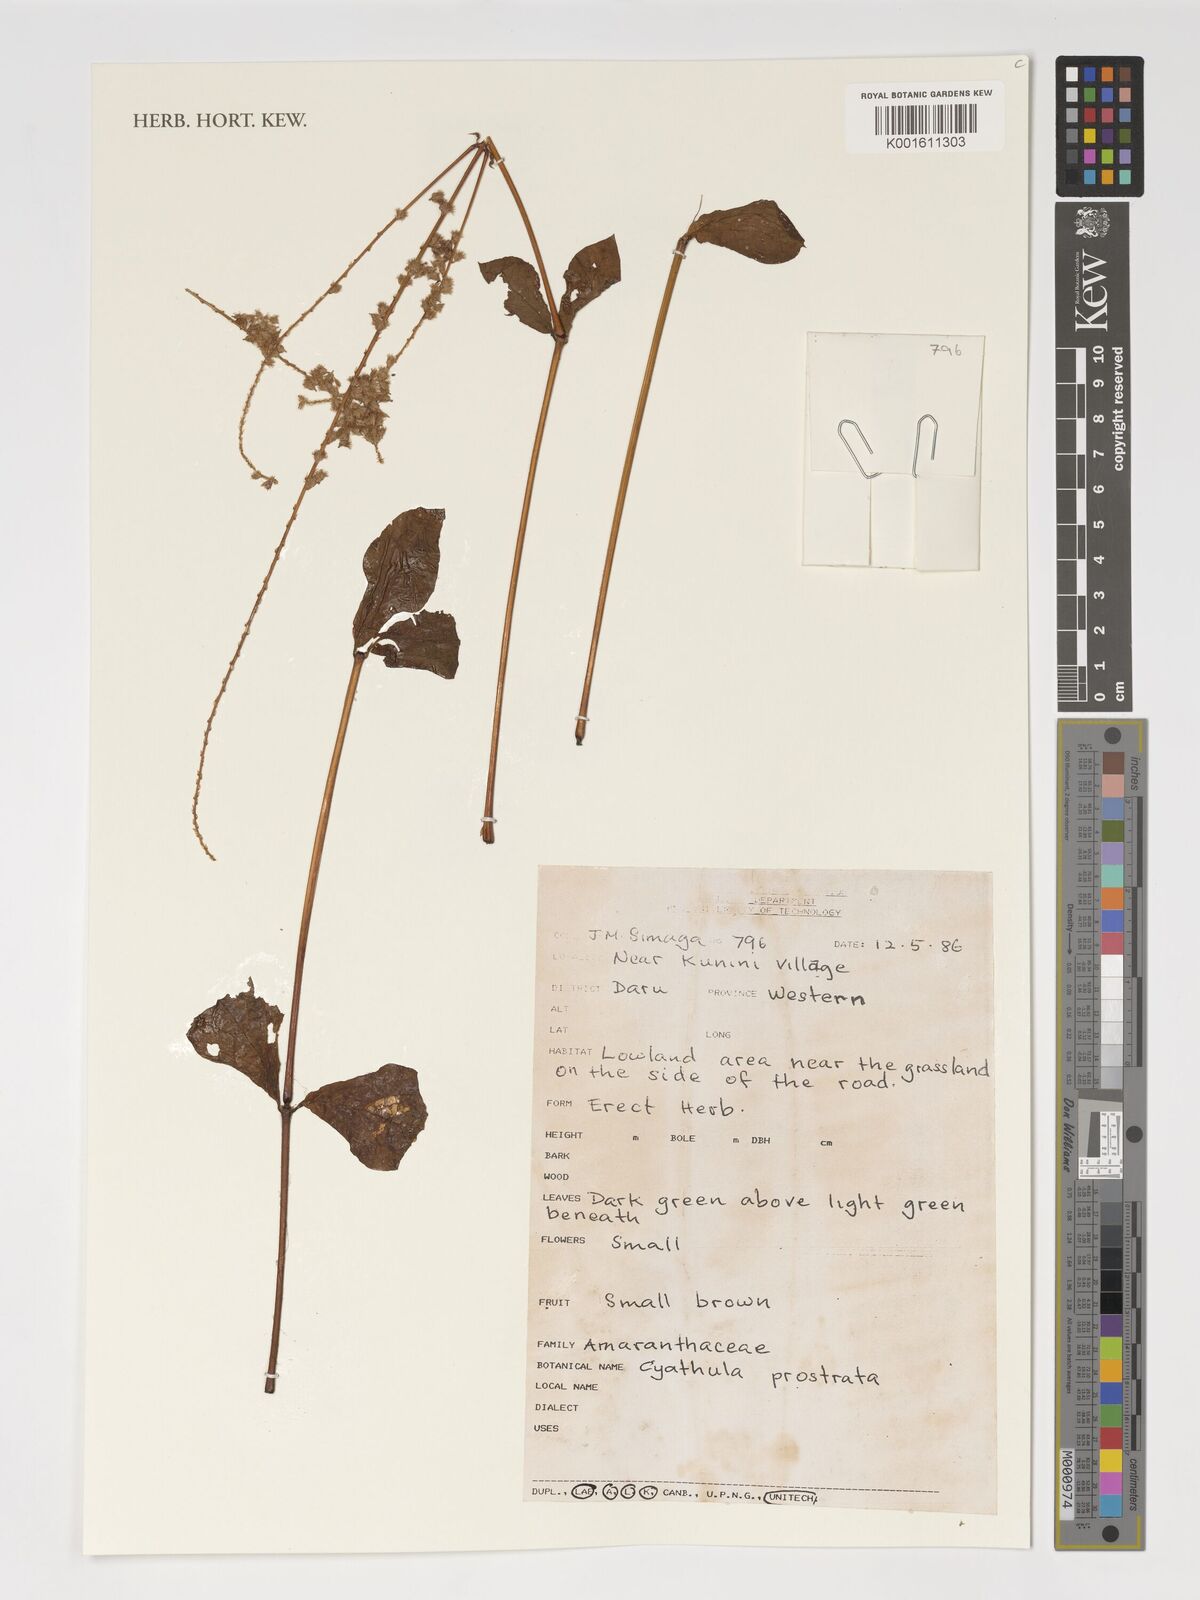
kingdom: Plantae
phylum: Tracheophyta
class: Magnoliopsida
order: Caryophyllales
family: Amaranthaceae
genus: Cyathula
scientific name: Cyathula prostrata
